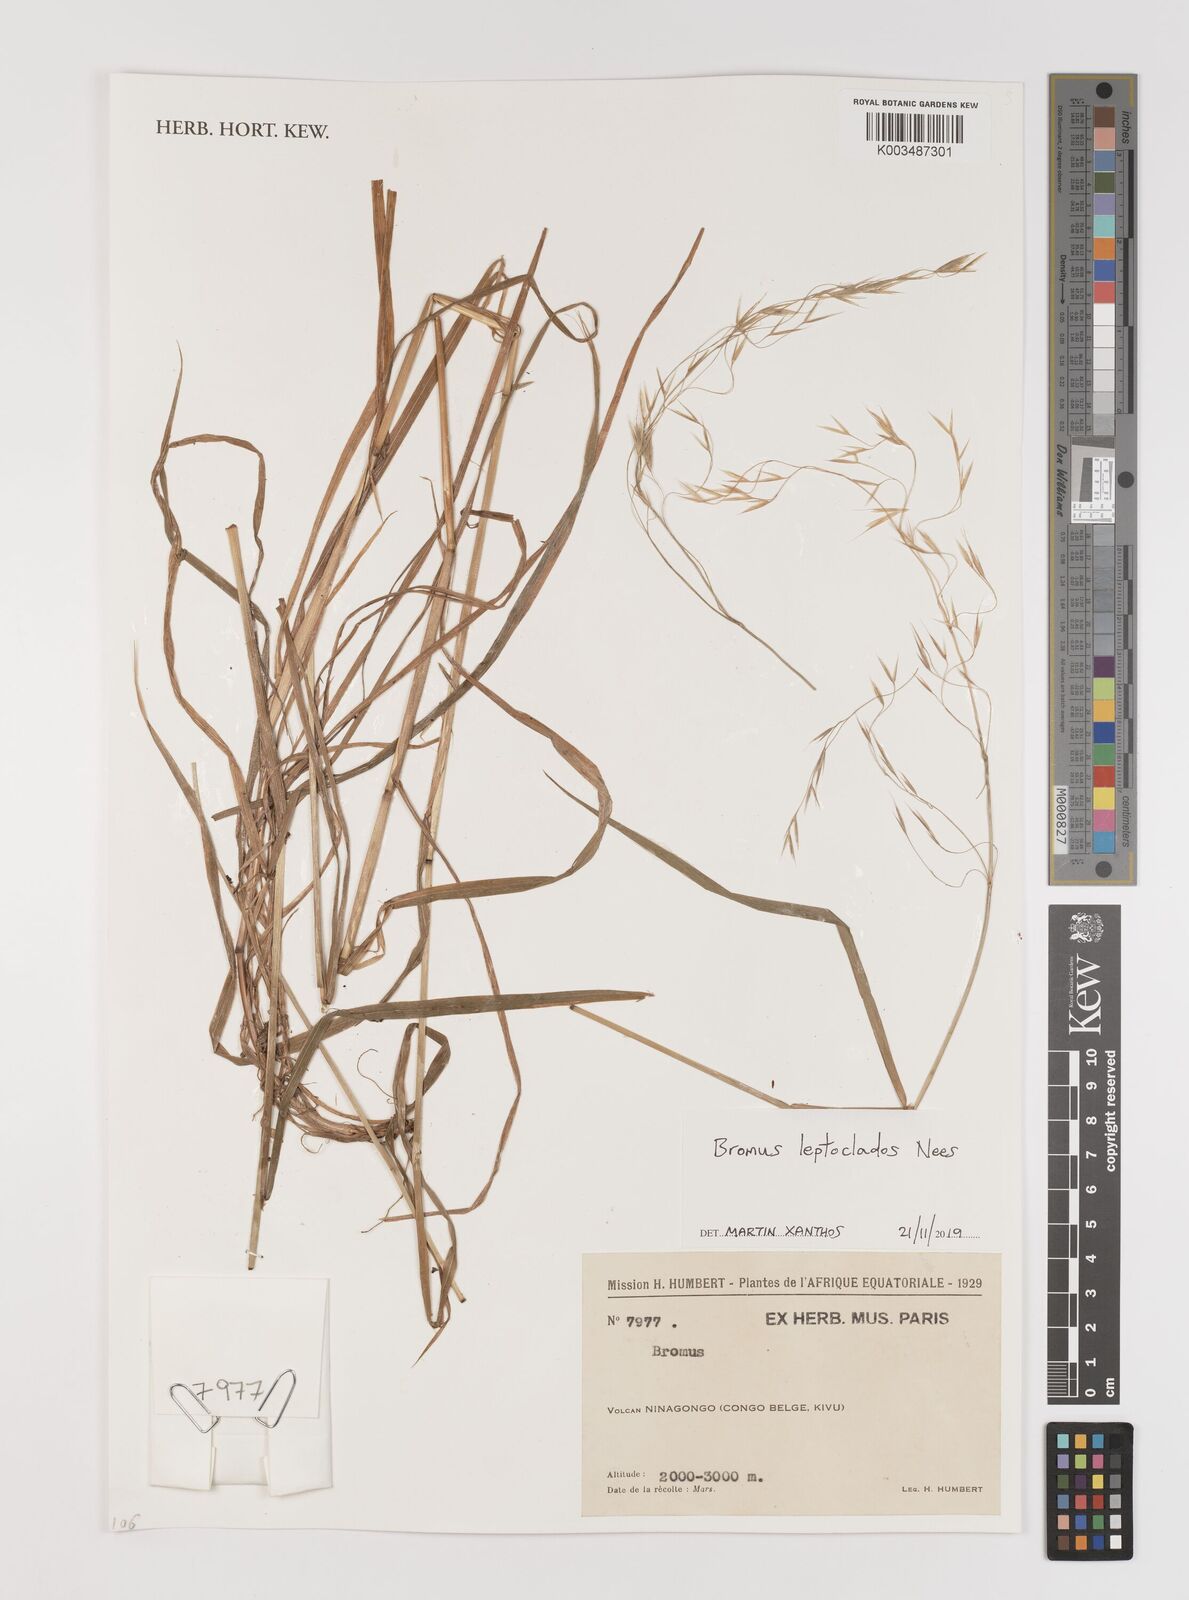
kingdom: Plantae
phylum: Tracheophyta
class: Liliopsida
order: Poales
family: Poaceae
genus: Bromus
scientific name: Bromus leptoclados
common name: Mountain bromegrass
